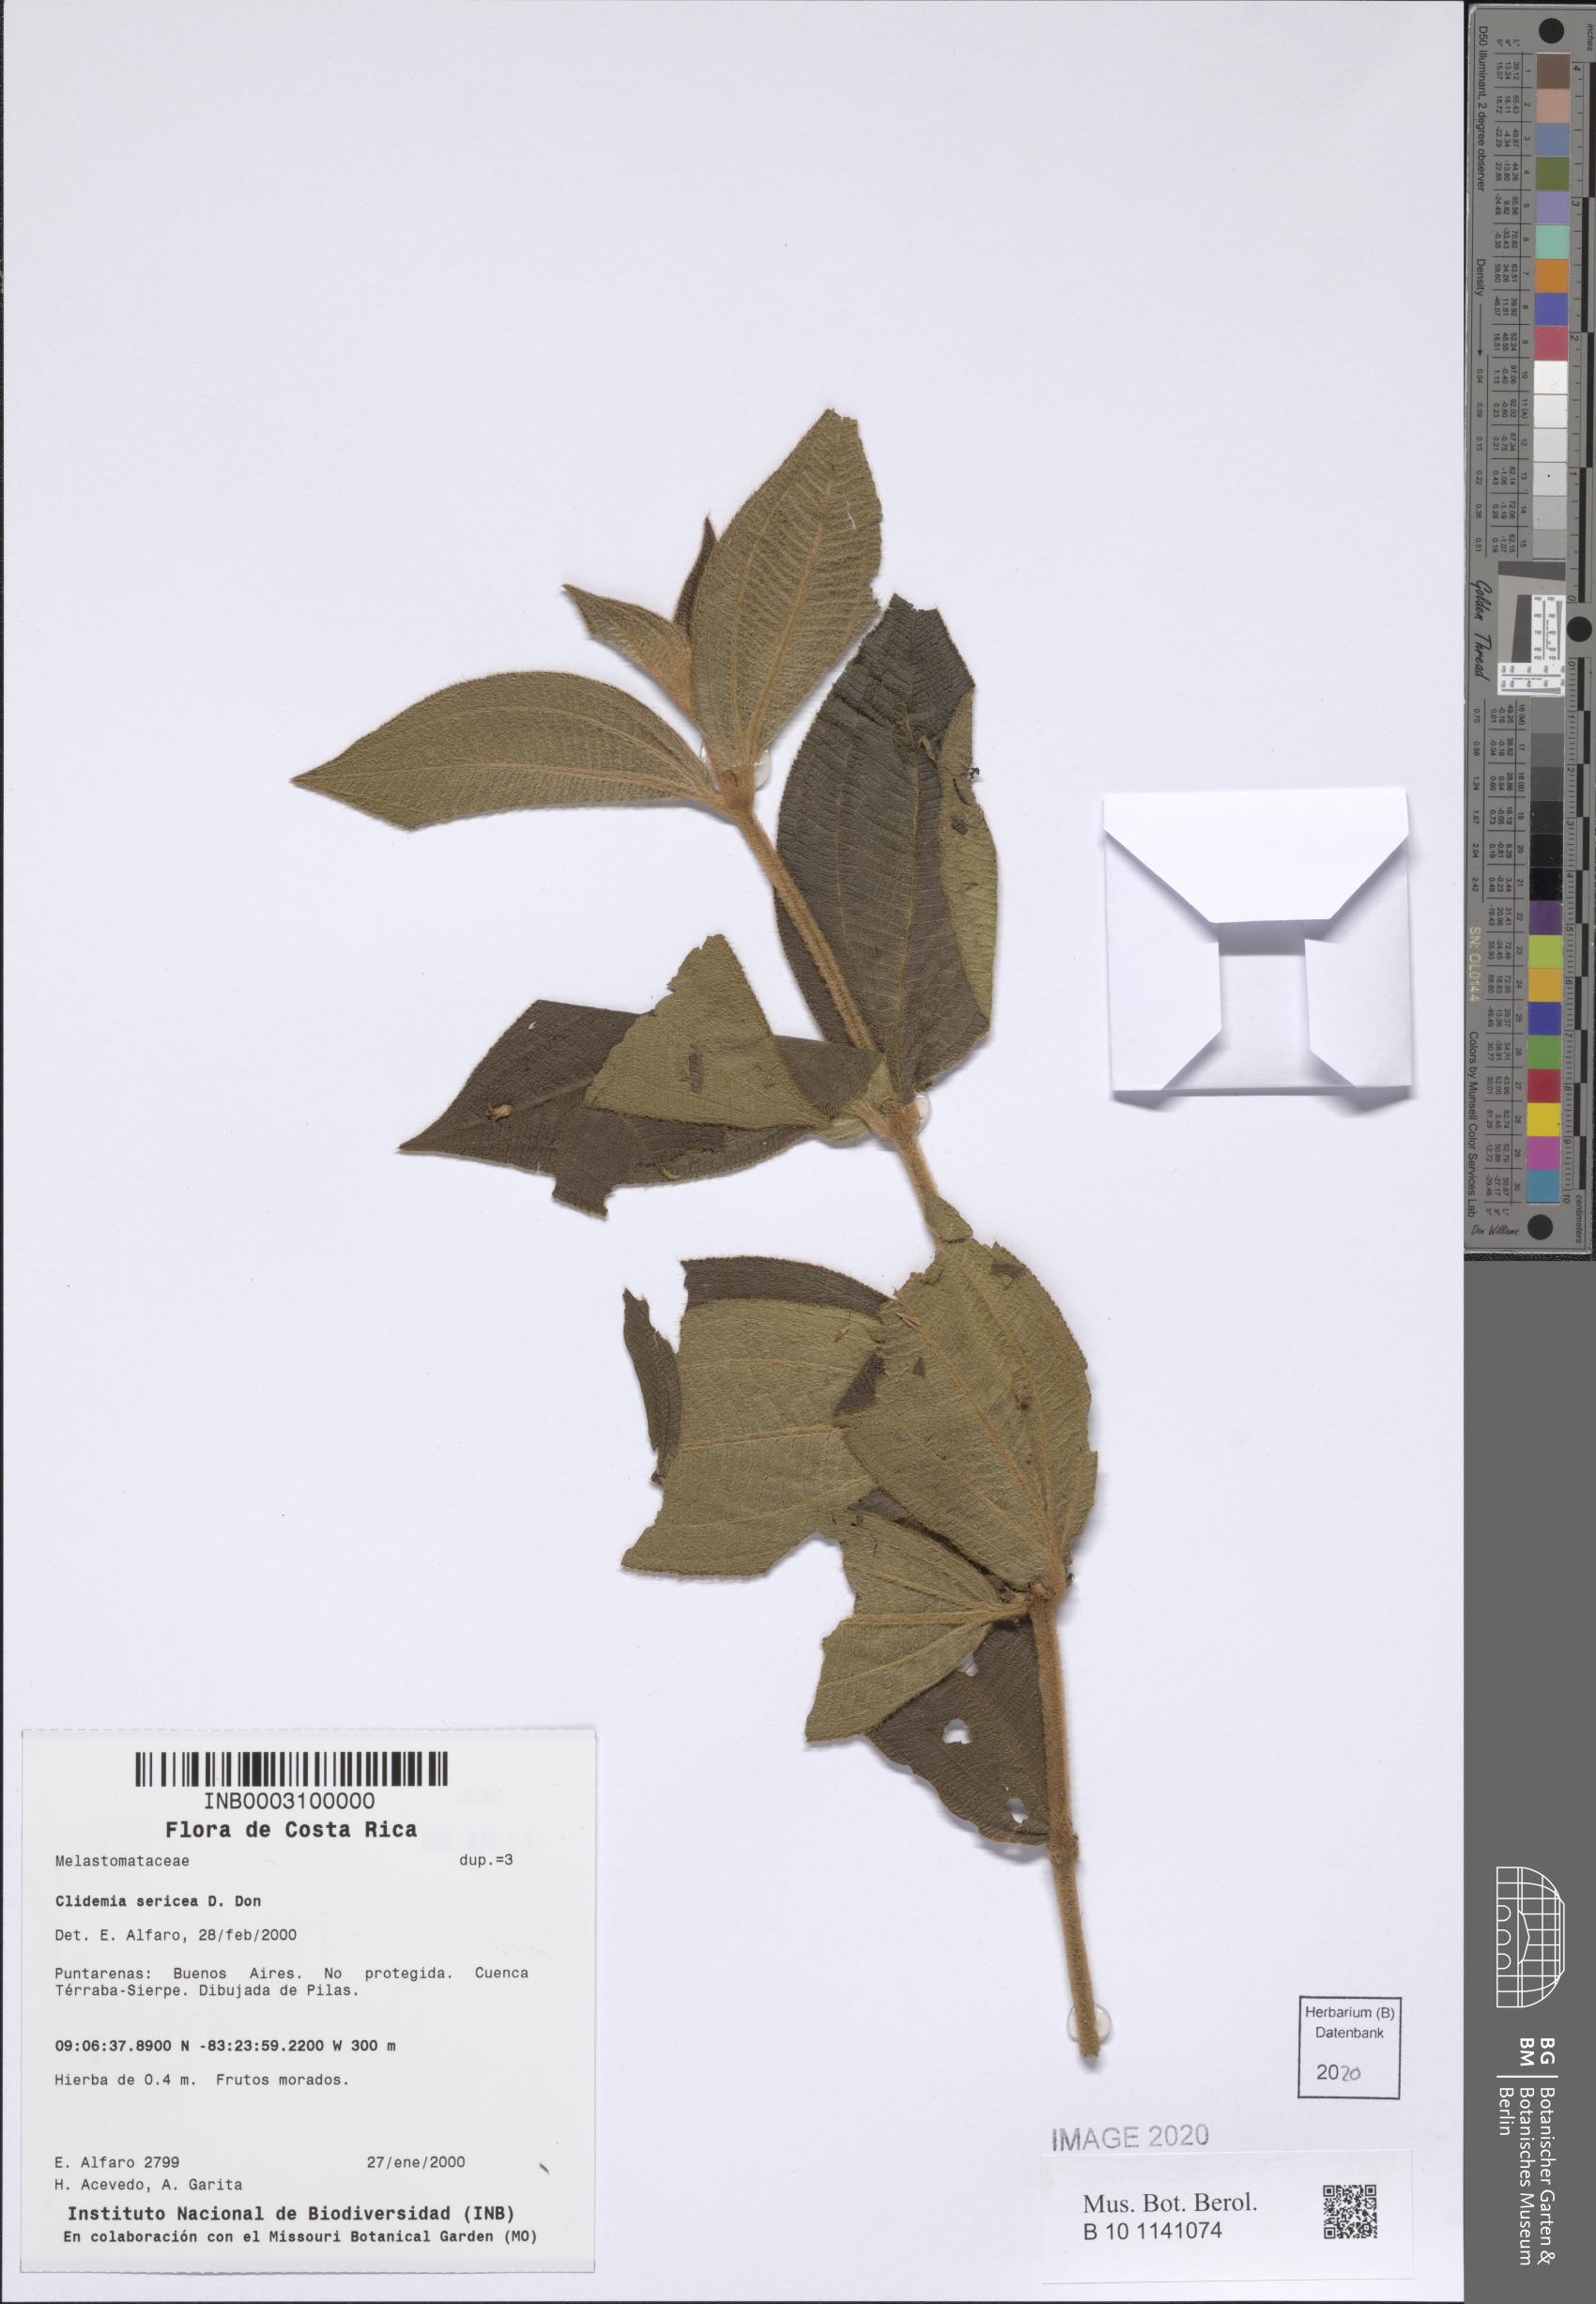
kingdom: Plantae
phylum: Tracheophyta
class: Magnoliopsida
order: Myrtales
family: Melastomataceae
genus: Miconia
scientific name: Miconia sericea
